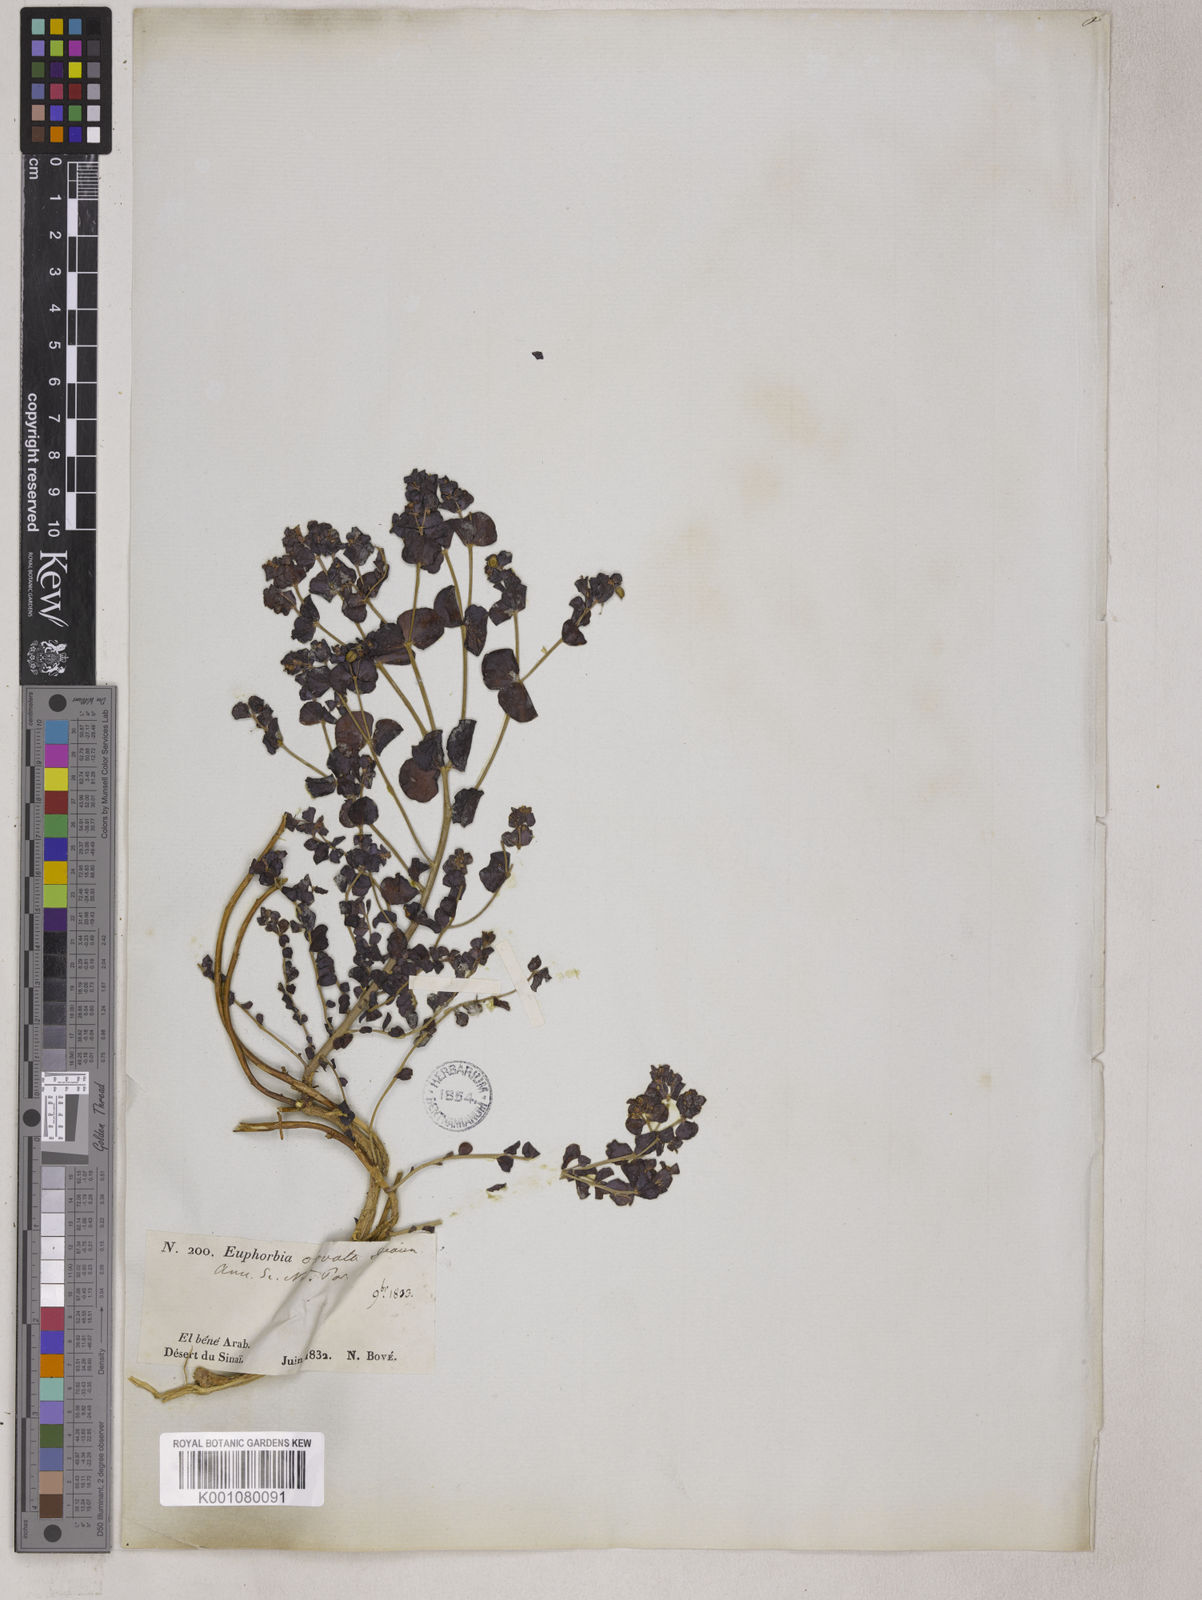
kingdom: Plantae
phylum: Tracheophyta
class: Magnoliopsida
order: Malpighiales
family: Euphorbiaceae
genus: Euphorbia
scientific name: Euphorbia obovata
